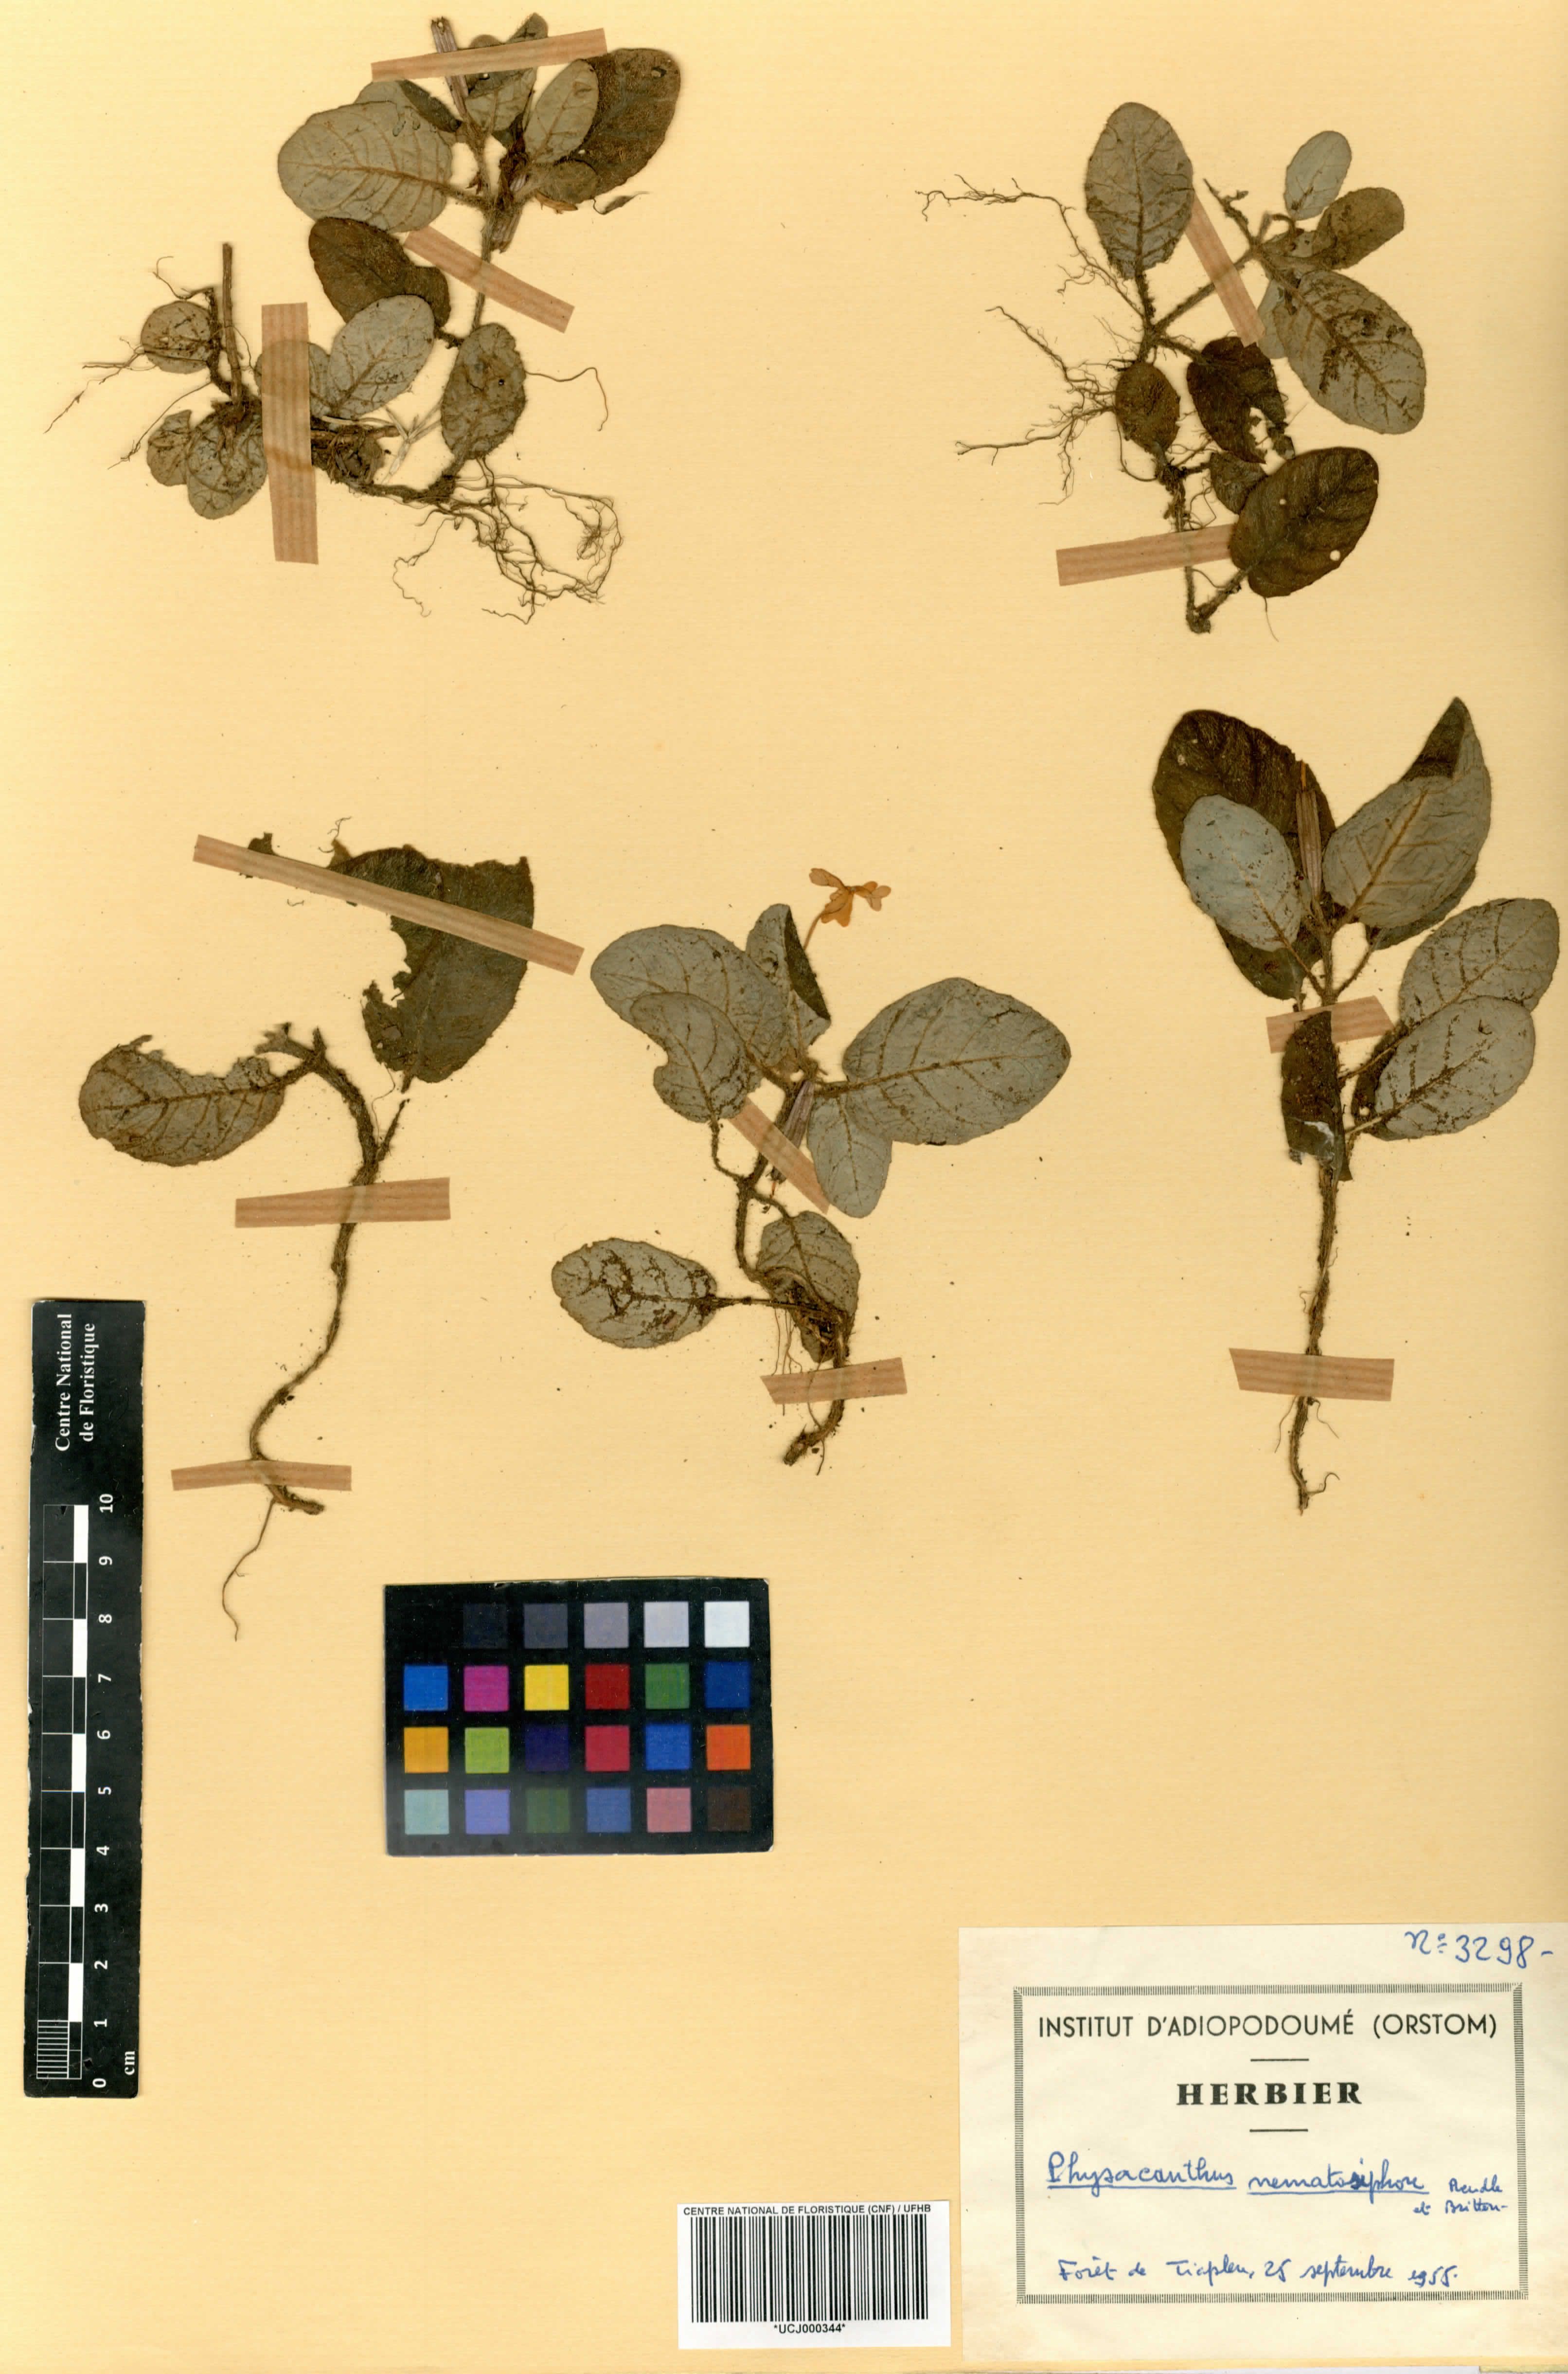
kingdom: Plantae
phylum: Tracheophyta
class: Magnoliopsida
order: Lamiales
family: Acanthaceae
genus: Physacanthus
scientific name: Physacanthus batanganus
